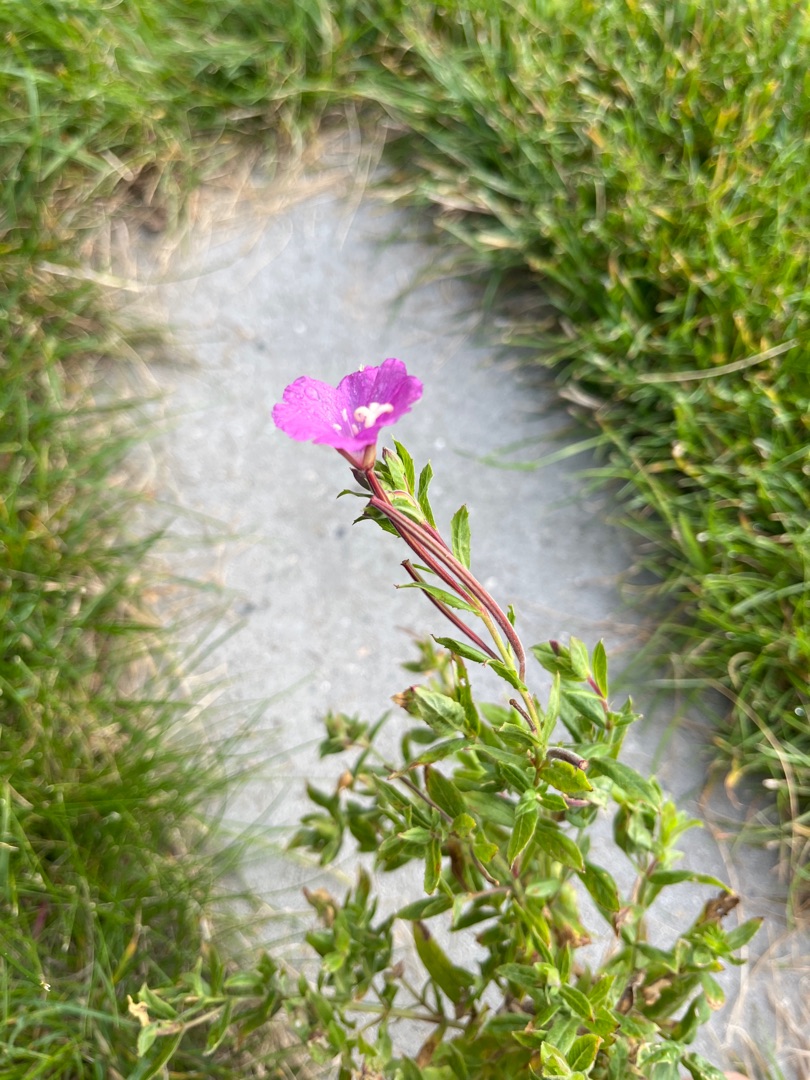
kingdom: Plantae
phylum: Tracheophyta
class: Magnoliopsida
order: Myrtales
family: Onagraceae
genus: Epilobium
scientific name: Epilobium hirsutum
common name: Lådden dueurt
